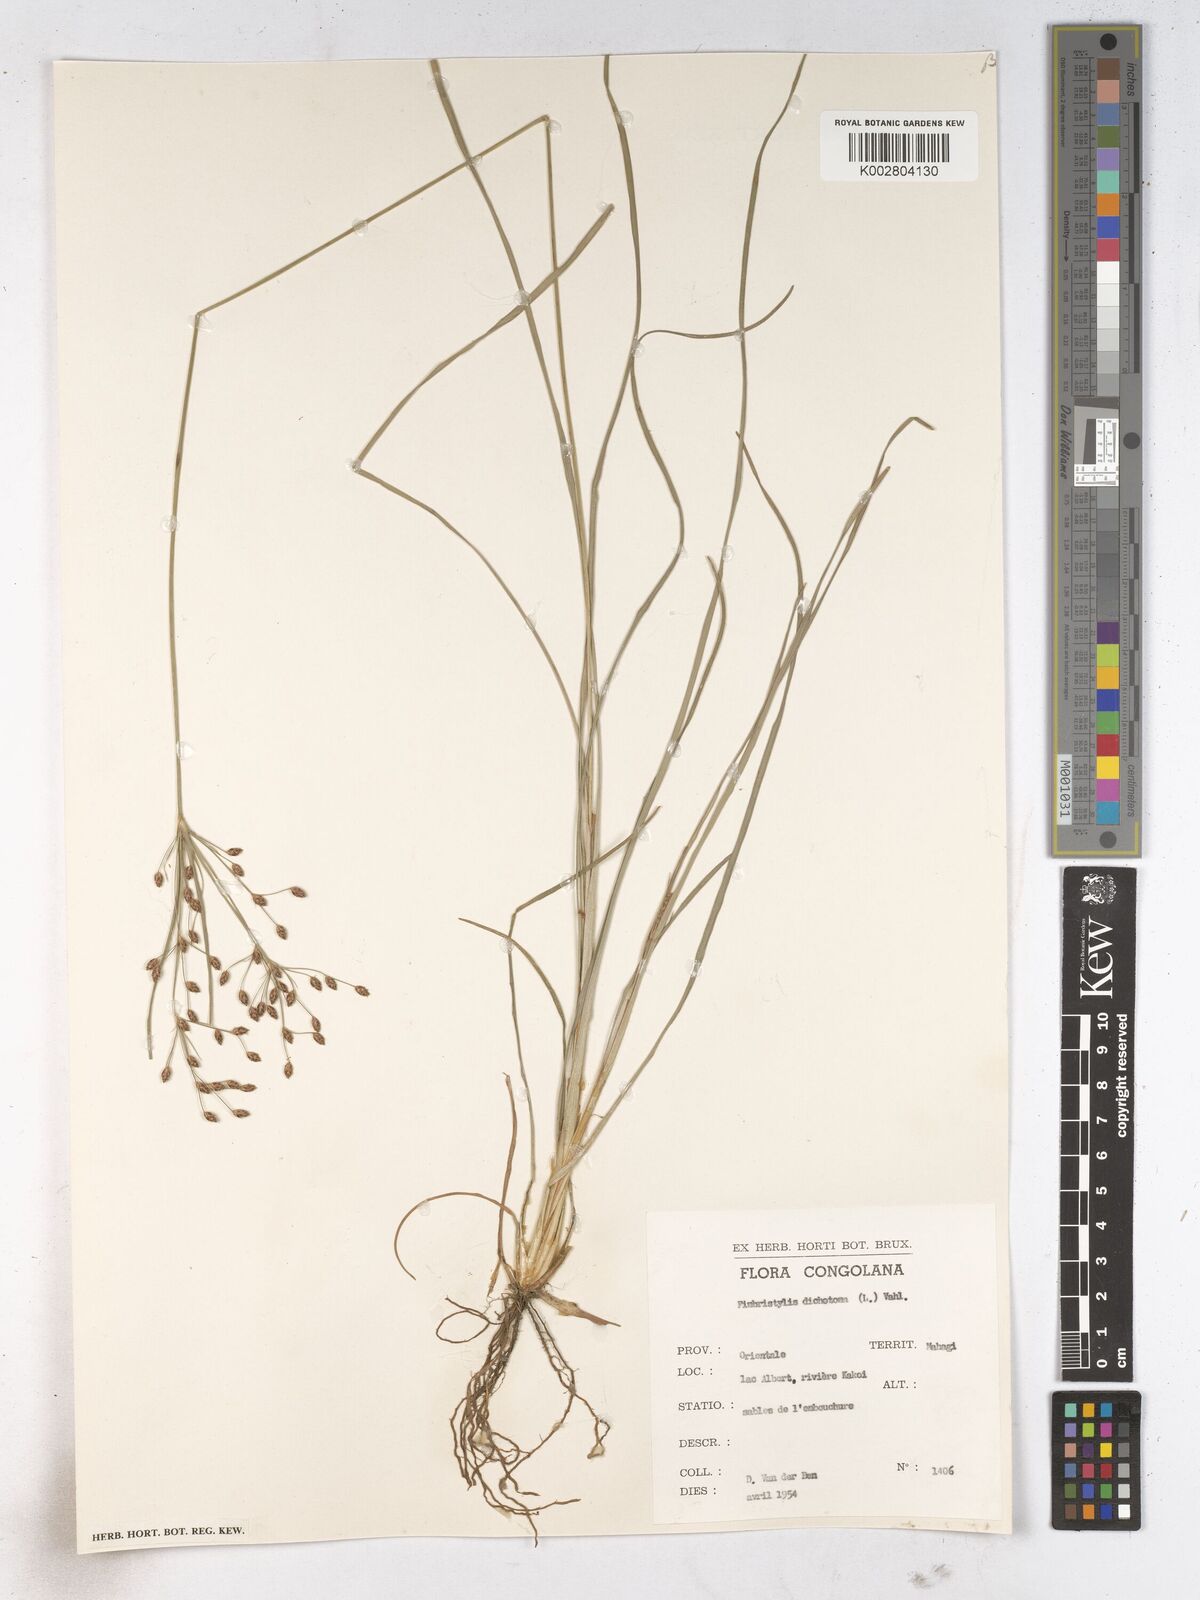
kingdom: Plantae
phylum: Tracheophyta
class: Liliopsida
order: Poales
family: Cyperaceae
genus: Fimbristylis
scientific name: Fimbristylis dichotoma
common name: Forked fimbry
